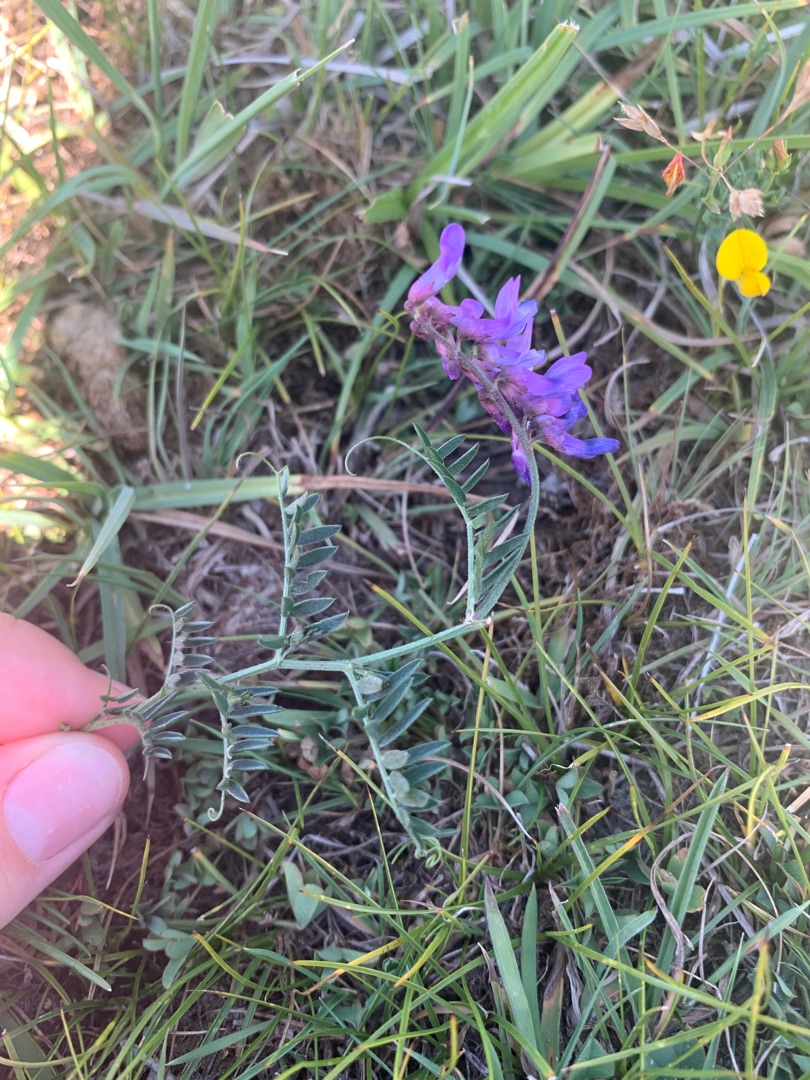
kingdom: Plantae
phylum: Tracheophyta
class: Magnoliopsida
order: Fabales
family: Fabaceae
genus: Vicia
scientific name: Vicia cracca
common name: Muse-vikke
